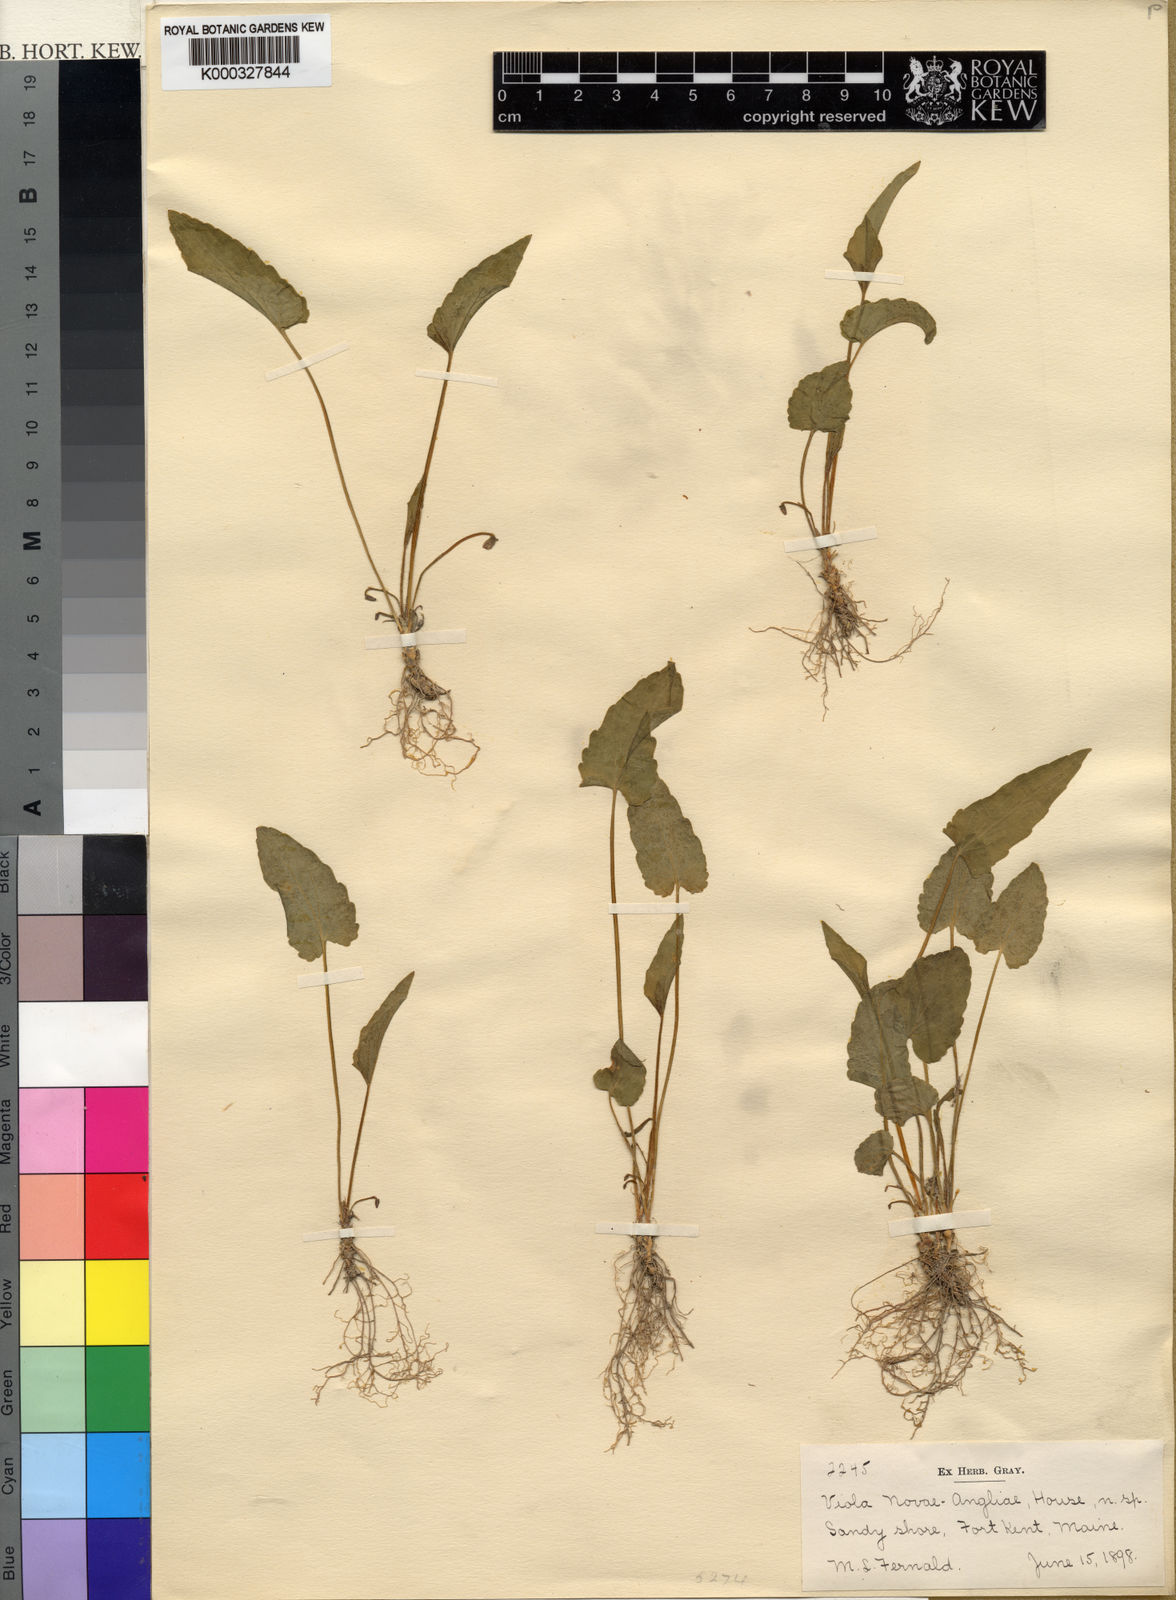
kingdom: Plantae
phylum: Tracheophyta
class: Magnoliopsida
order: Malpighiales
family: Violaceae
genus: Viola
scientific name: Viola novae-angliae
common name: New england blue violet
